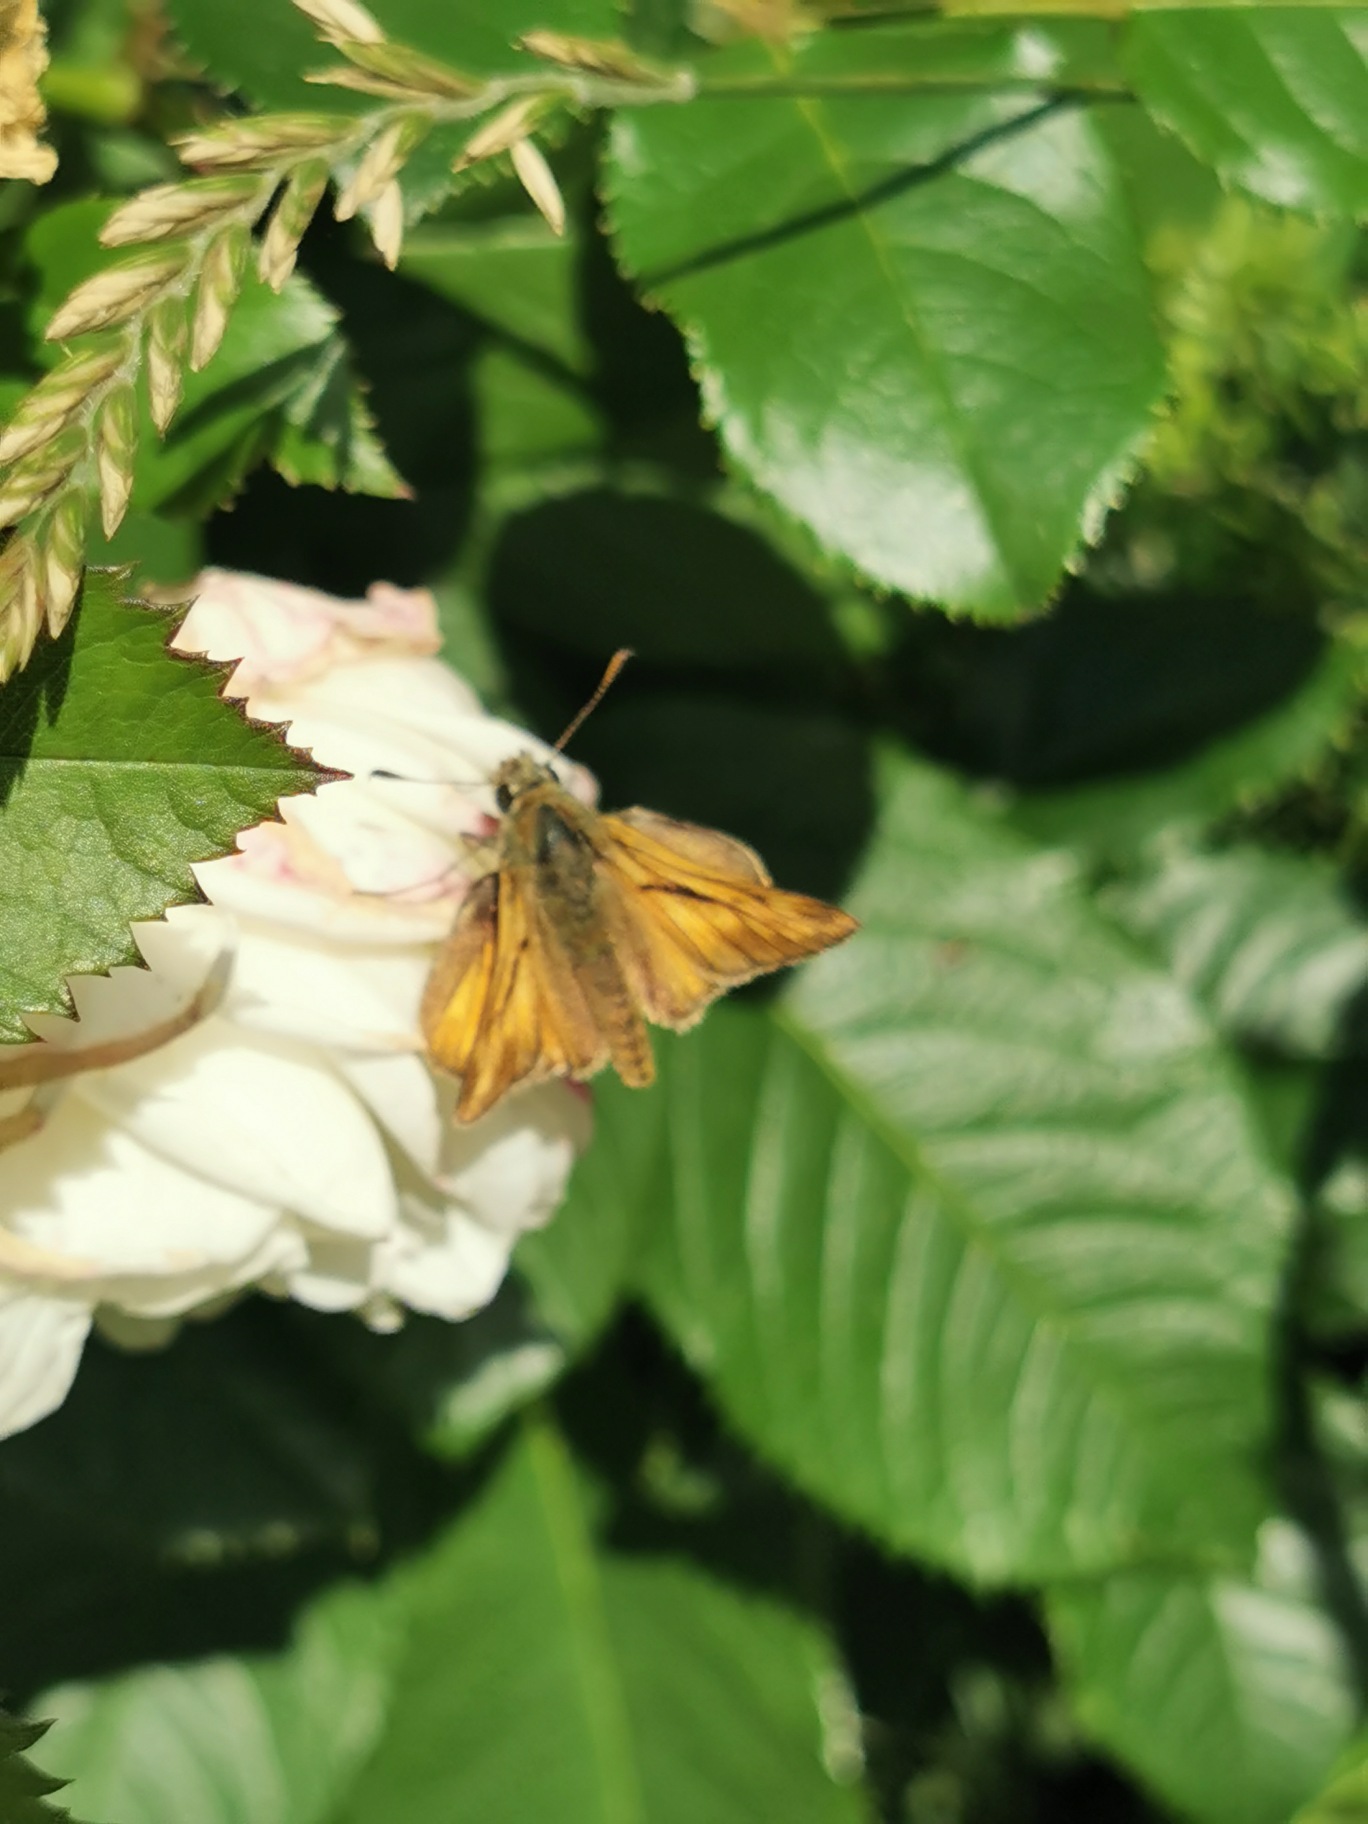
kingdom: Animalia
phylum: Arthropoda
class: Insecta
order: Lepidoptera
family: Hesperiidae
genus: Ochlodes
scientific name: Ochlodes venata
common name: Stor bredpande
